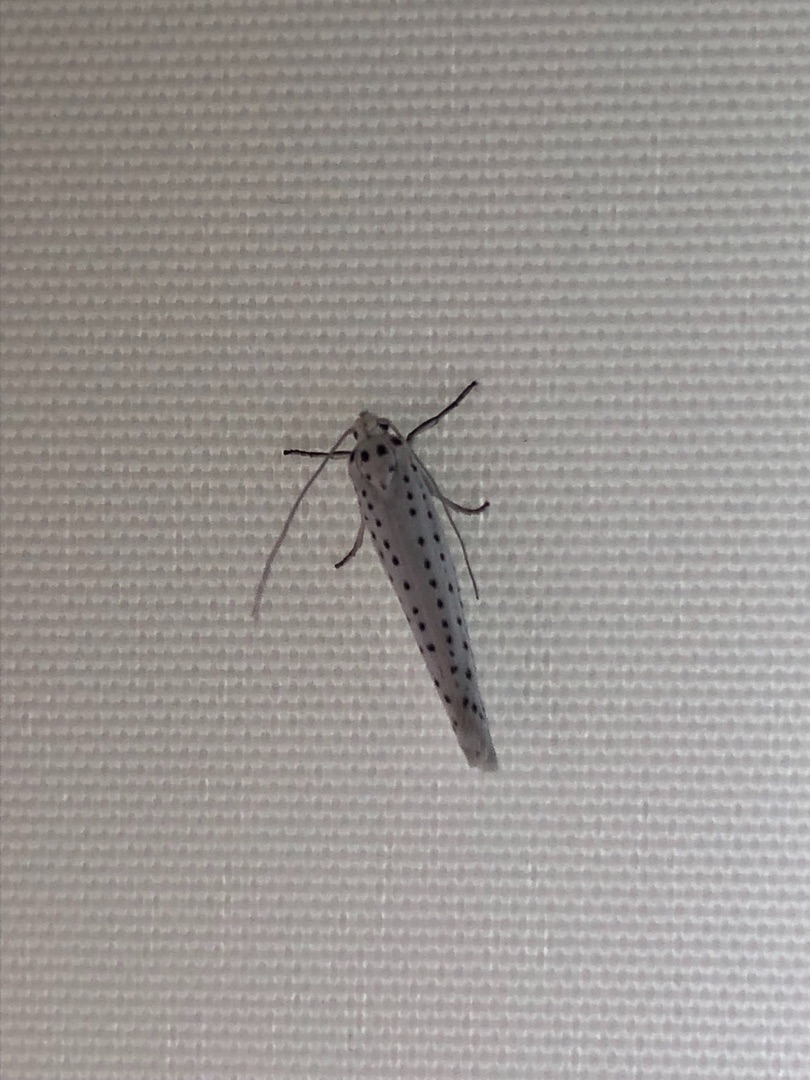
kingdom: Animalia
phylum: Arthropoda
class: Insecta
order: Lepidoptera
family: Yponomeutidae
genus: Yponomeuta
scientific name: Yponomeuta evonymella
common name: Hægspindemøl
